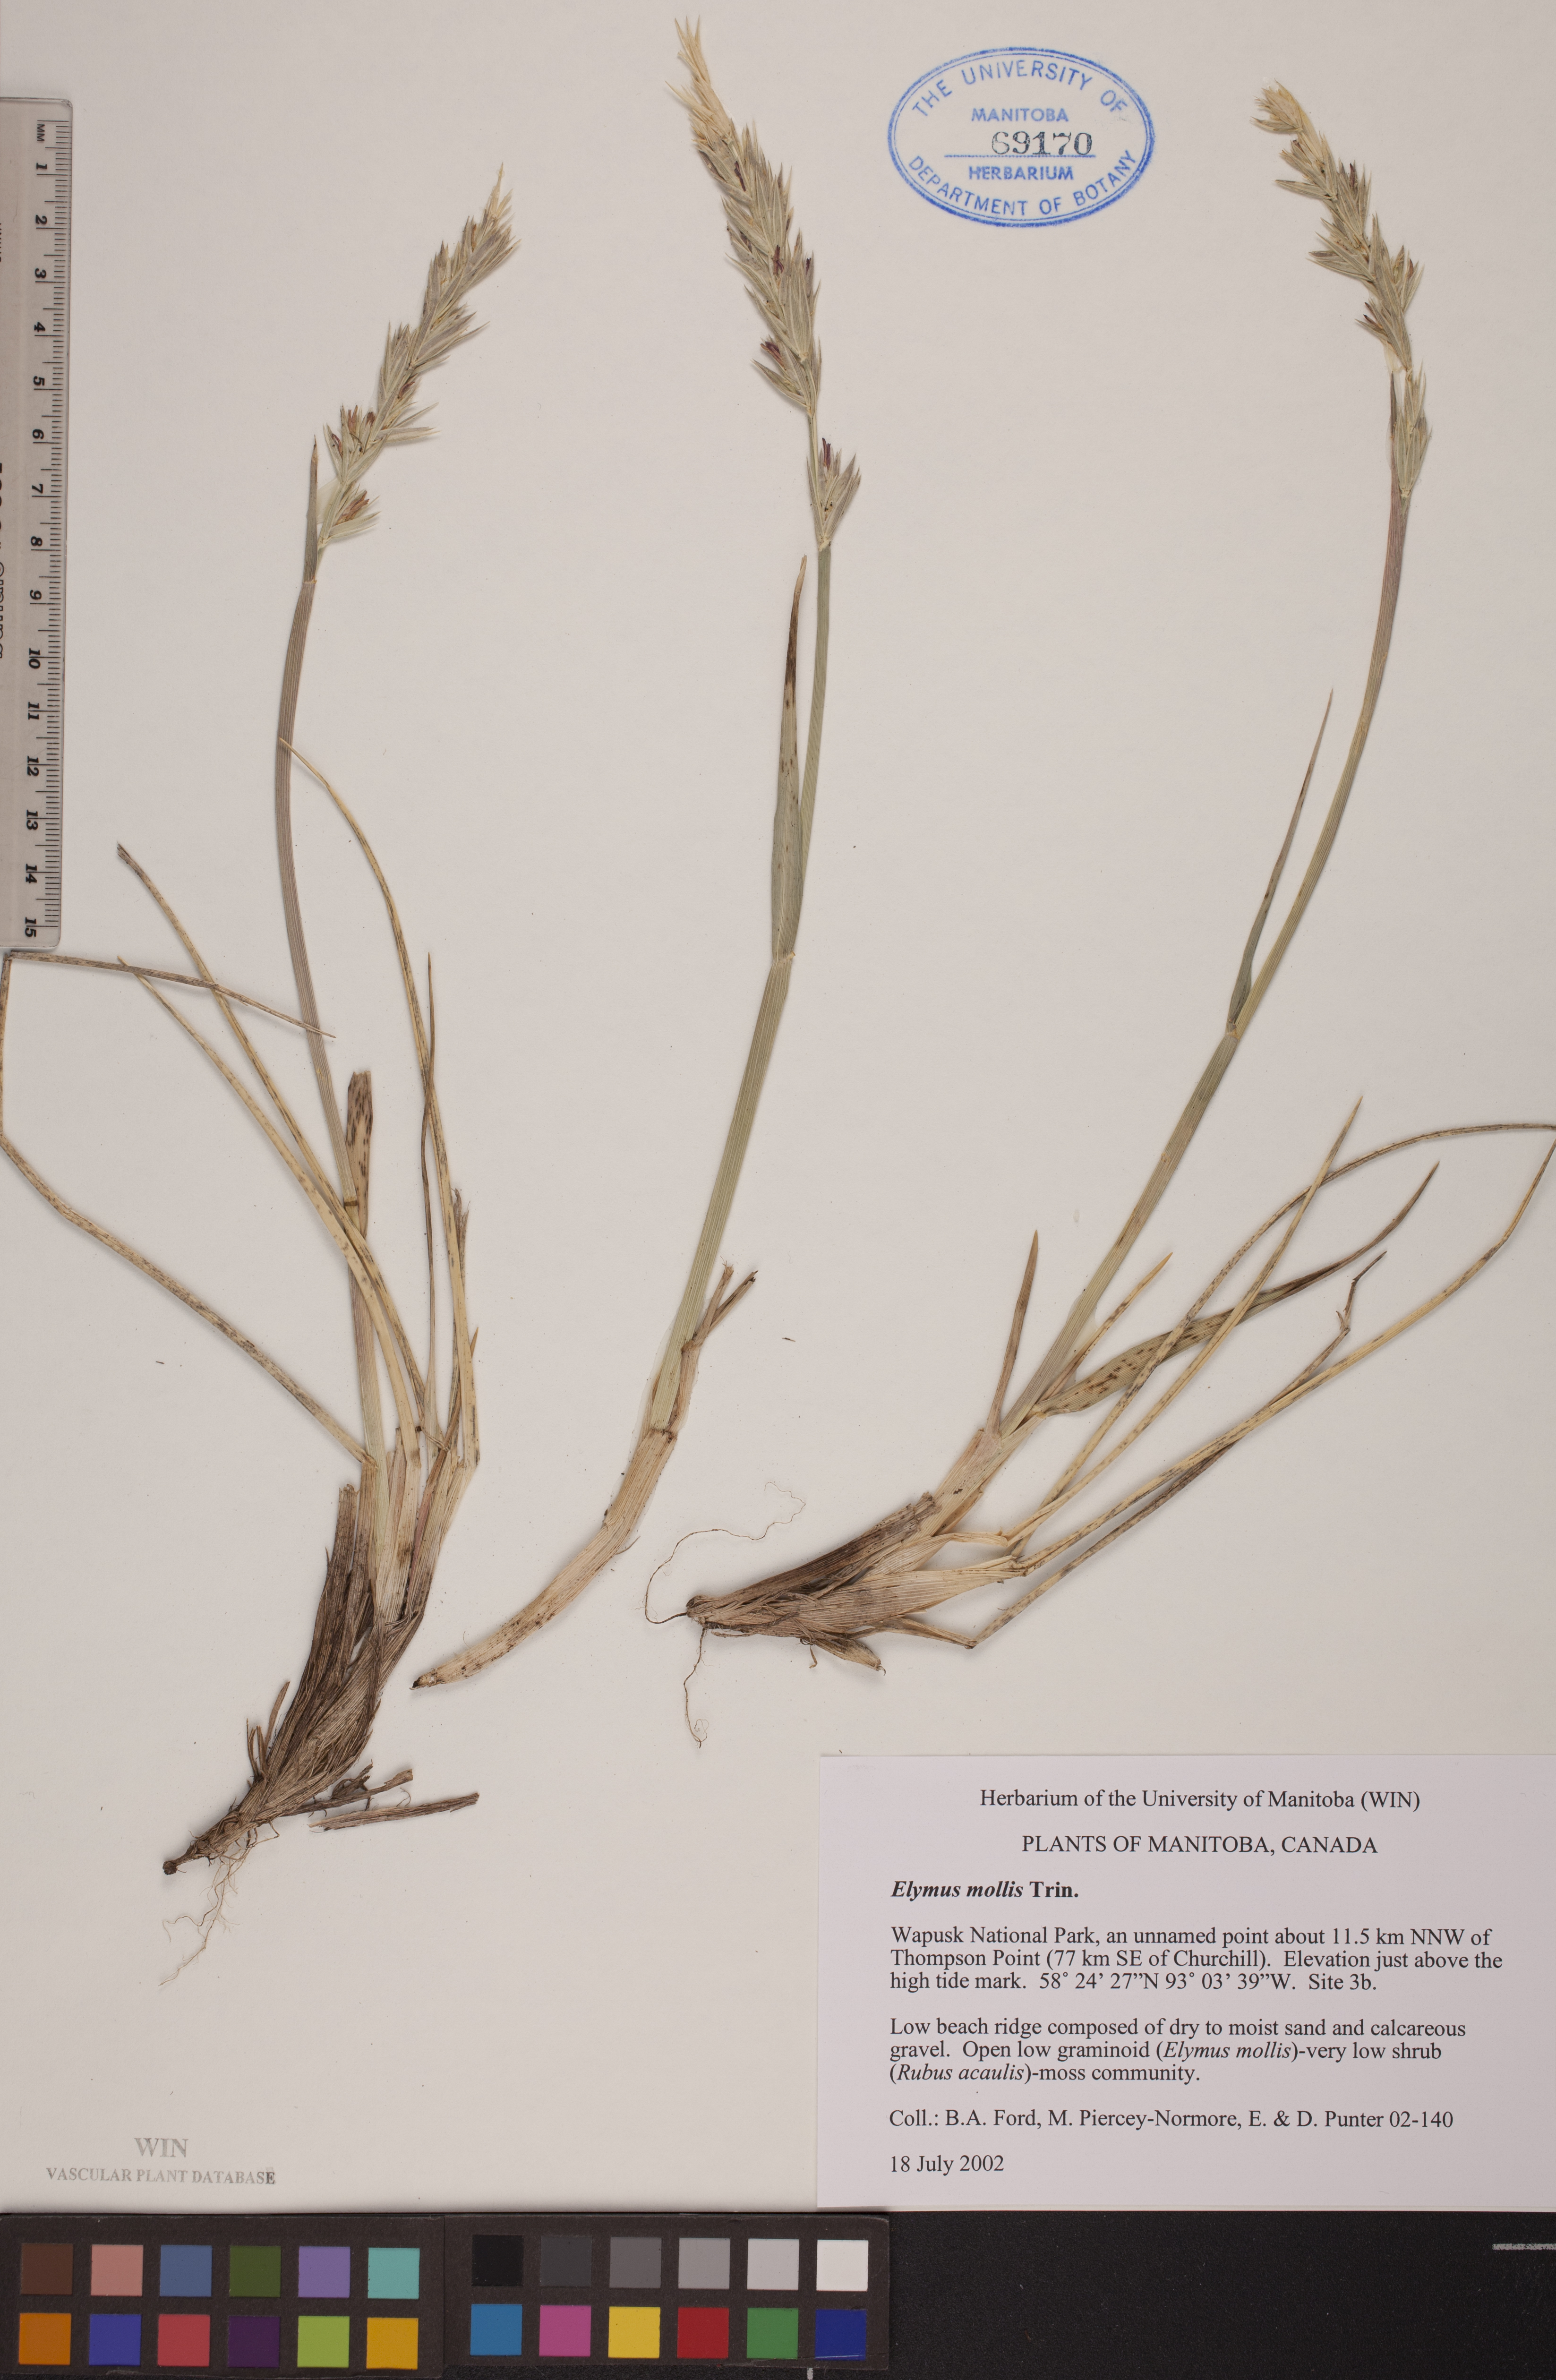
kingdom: Plantae
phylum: Tracheophyta
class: Liliopsida
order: Poales
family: Poaceae
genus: Leymus
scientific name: Leymus mollis
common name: American dune grass
